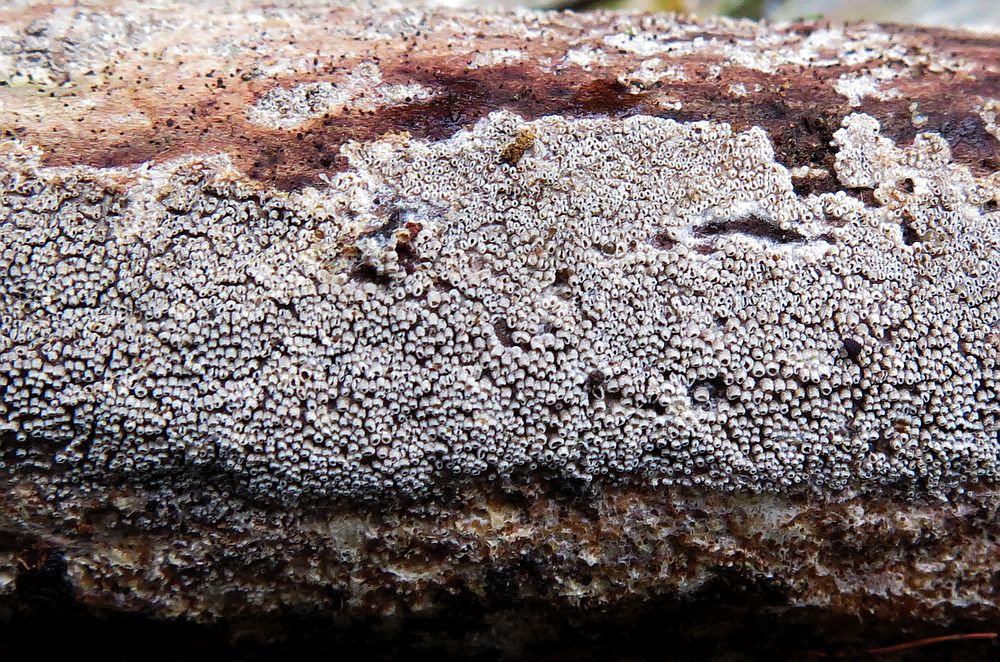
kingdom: Fungi
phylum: Basidiomycota
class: Agaricomycetes
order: Agaricales
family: Pleurotaceae
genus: Resupinatus
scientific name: Resupinatus poriaeformis
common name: tæpperør
